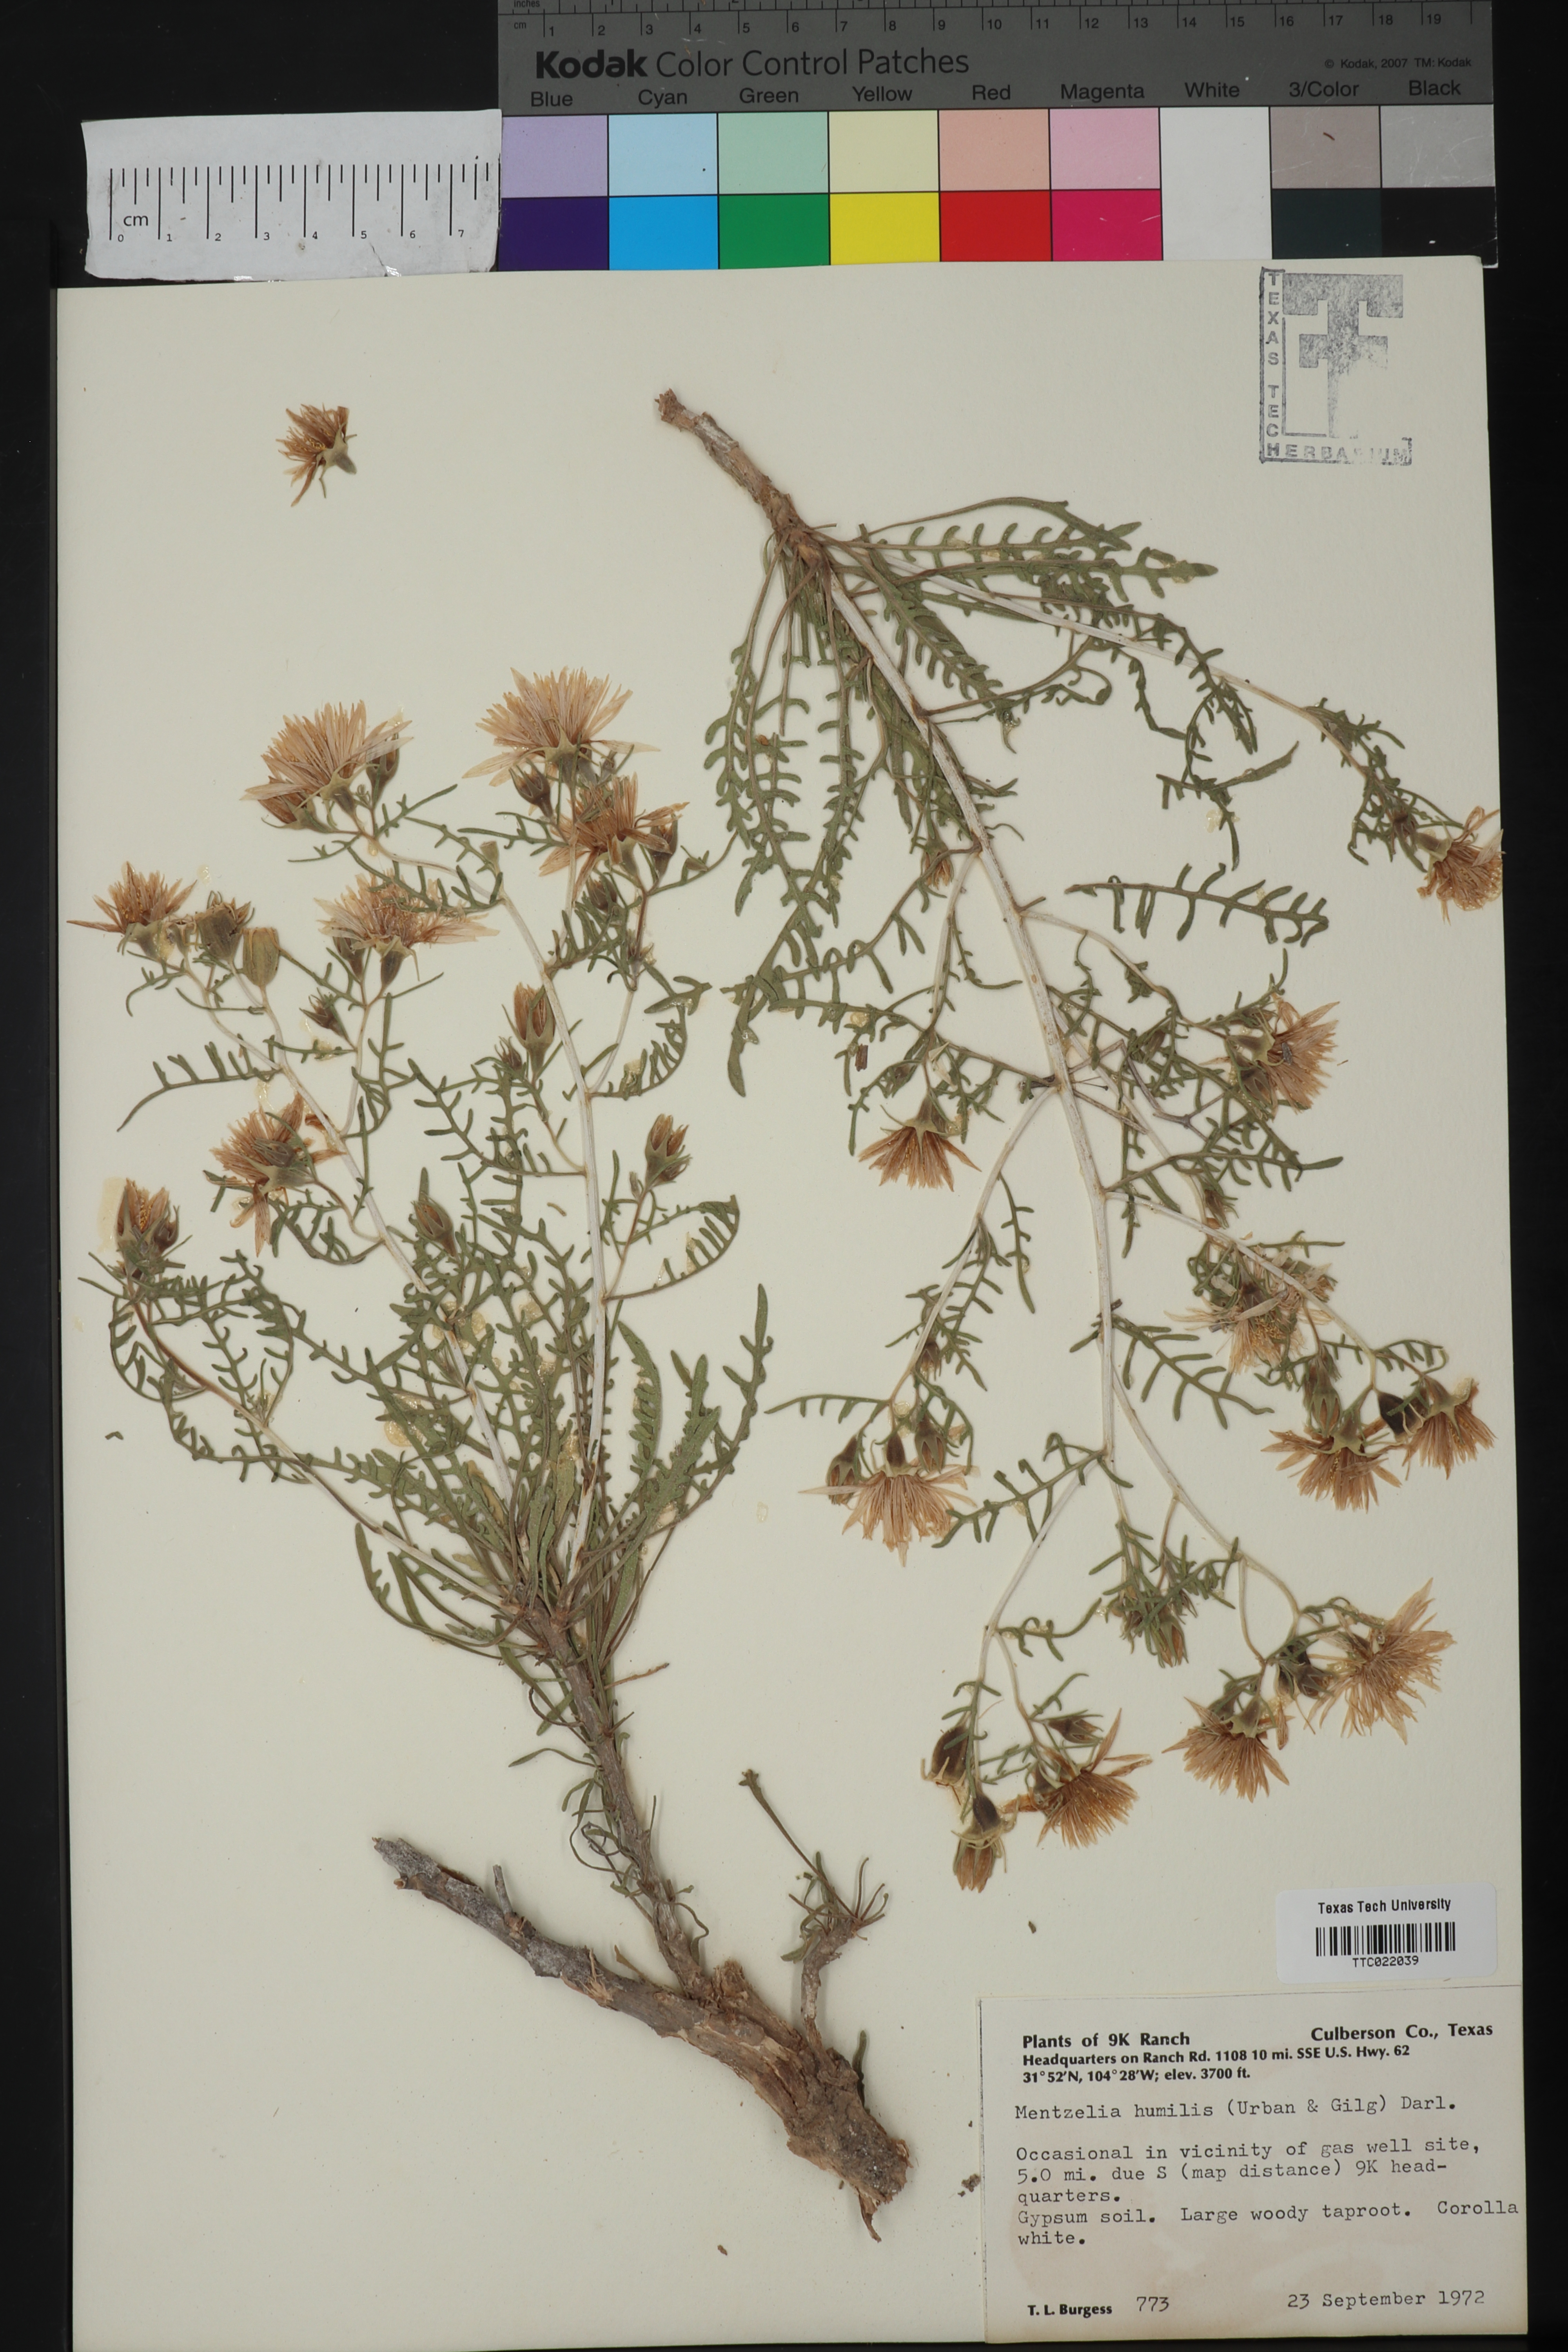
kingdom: Plantae
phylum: Tracheophyta
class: Magnoliopsida
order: Cornales
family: Loasaceae
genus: Mentzelia
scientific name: Mentzelia humilis
